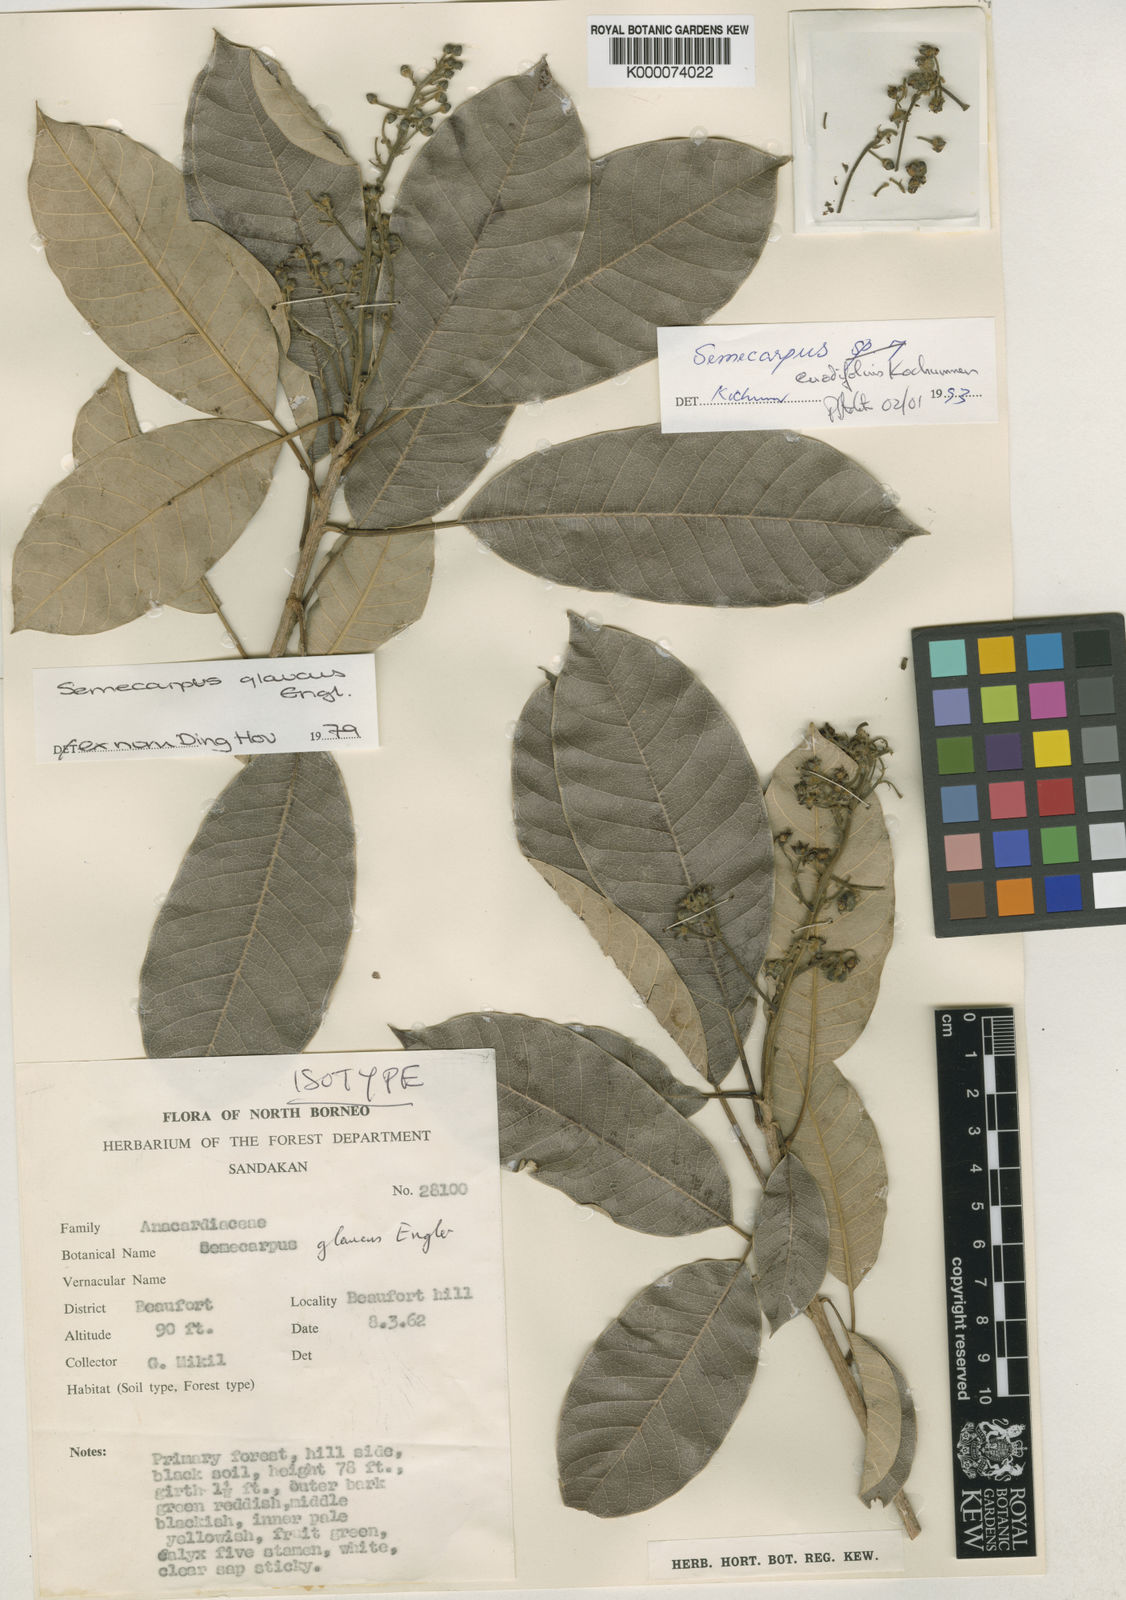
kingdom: Plantae
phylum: Tracheophyta
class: Magnoliopsida
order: Sapindales
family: Anacardiaceae
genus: Semecarpus
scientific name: Semecarpus euodiifolius
